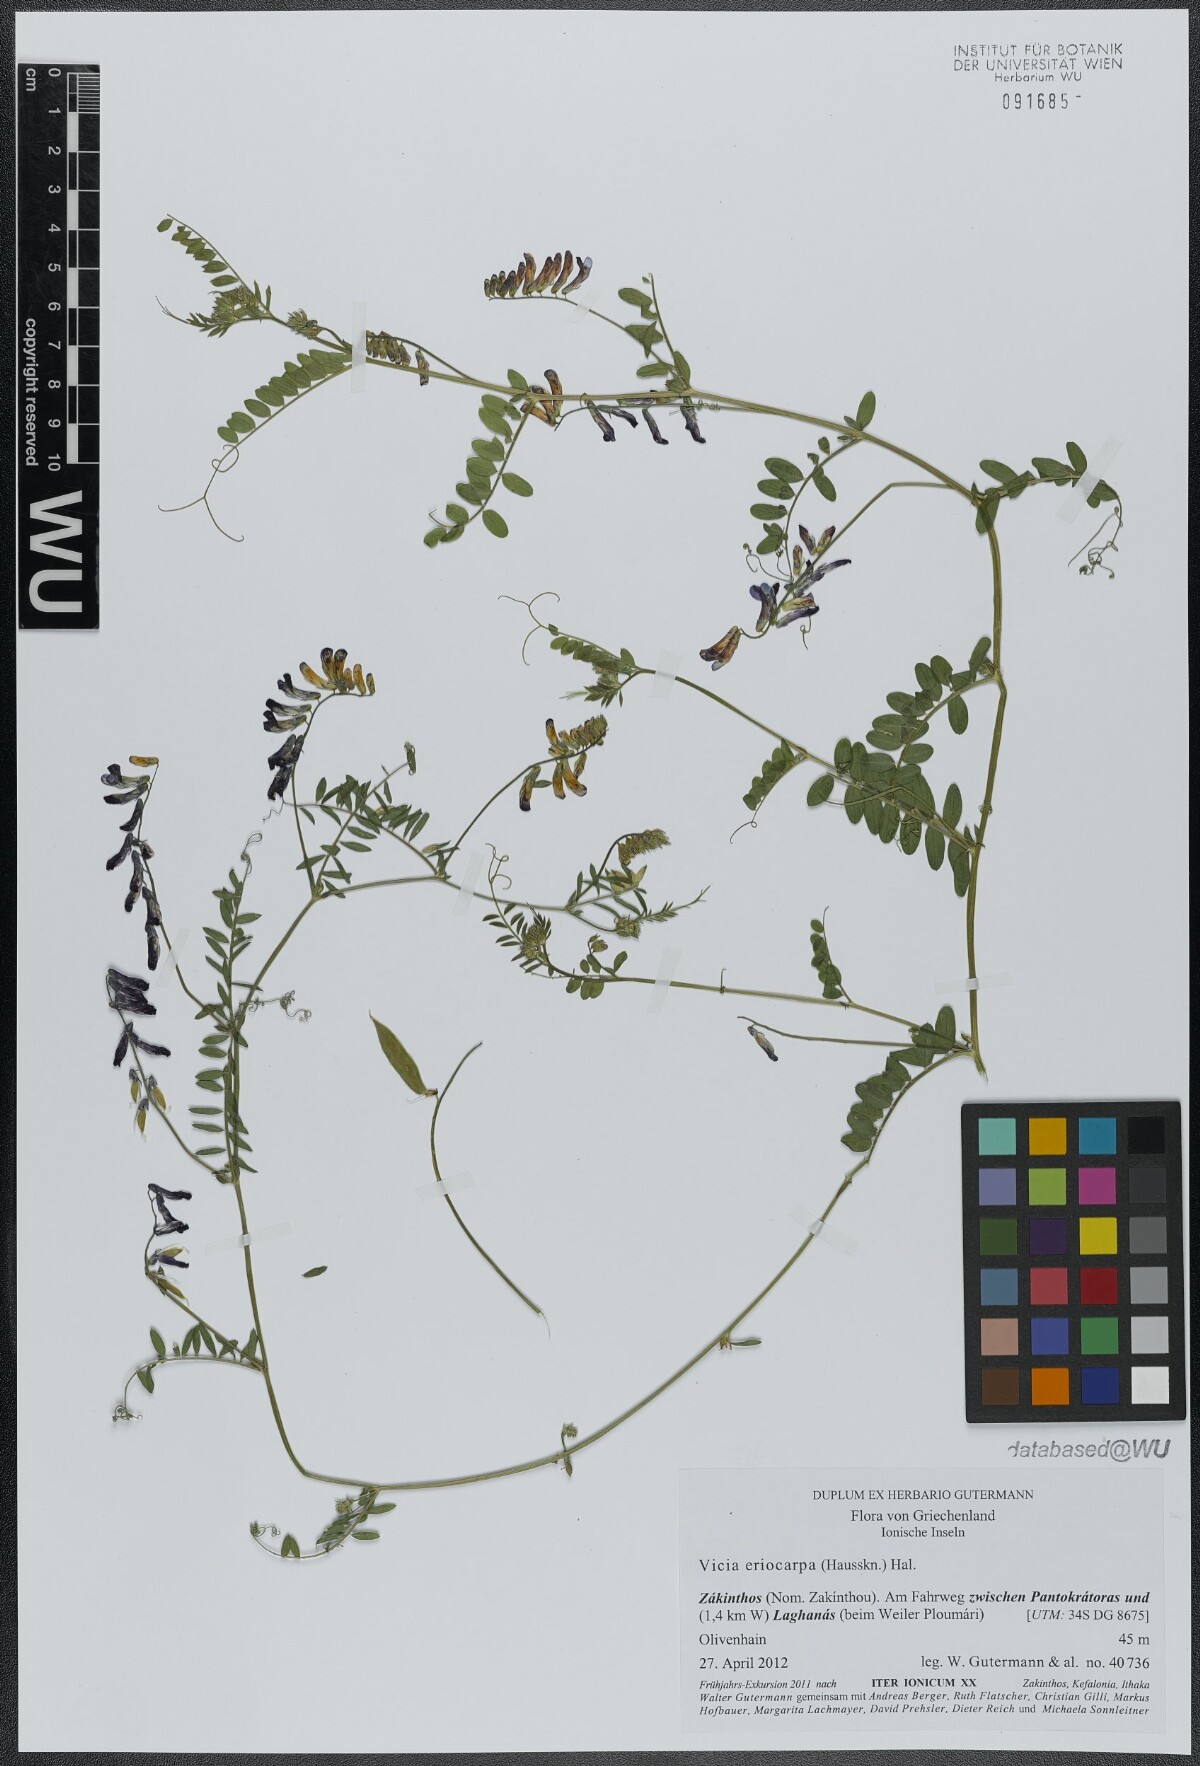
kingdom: Plantae
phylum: Tracheophyta
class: Magnoliopsida
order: Fabales
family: Fabaceae
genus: Vicia
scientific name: Vicia eriocarpa
